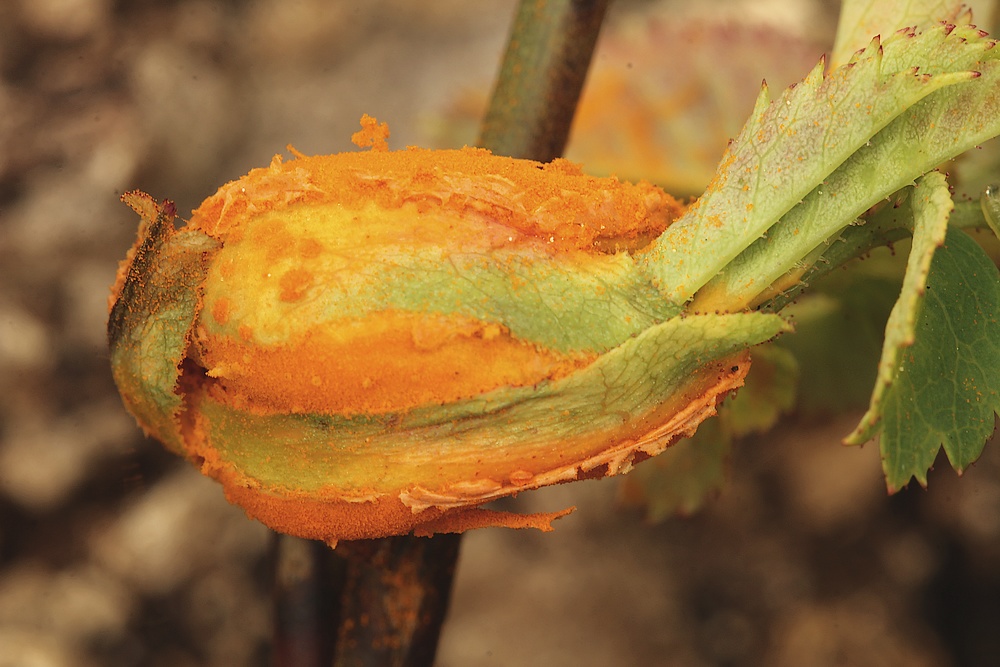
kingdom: Fungi
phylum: Basidiomycota
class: Pucciniomycetes
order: Pucciniales
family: Phragmidiaceae
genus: Phragmidium
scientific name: Phragmidium
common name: flercellerust
